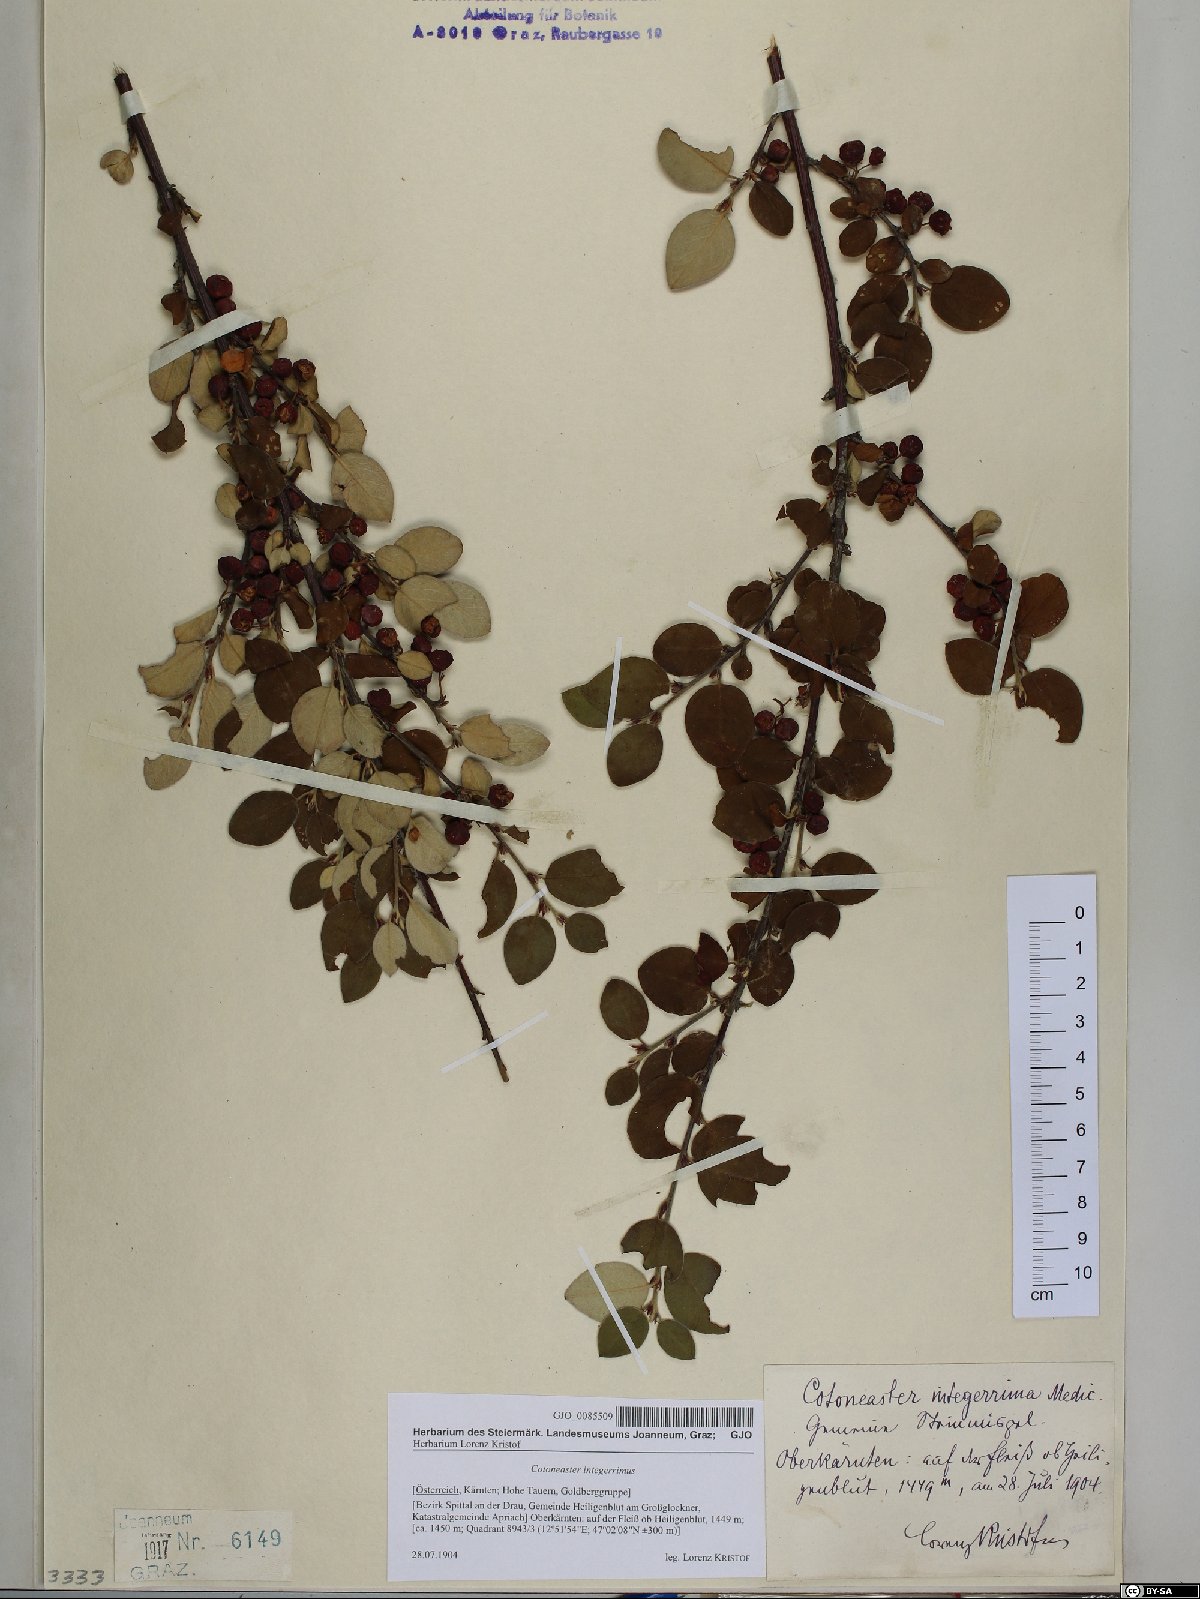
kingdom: Plantae
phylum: Tracheophyta
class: Magnoliopsida
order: Rosales
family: Rosaceae
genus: Cotoneaster
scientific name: Cotoneaster integerrimus
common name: Wild cotoneaster
